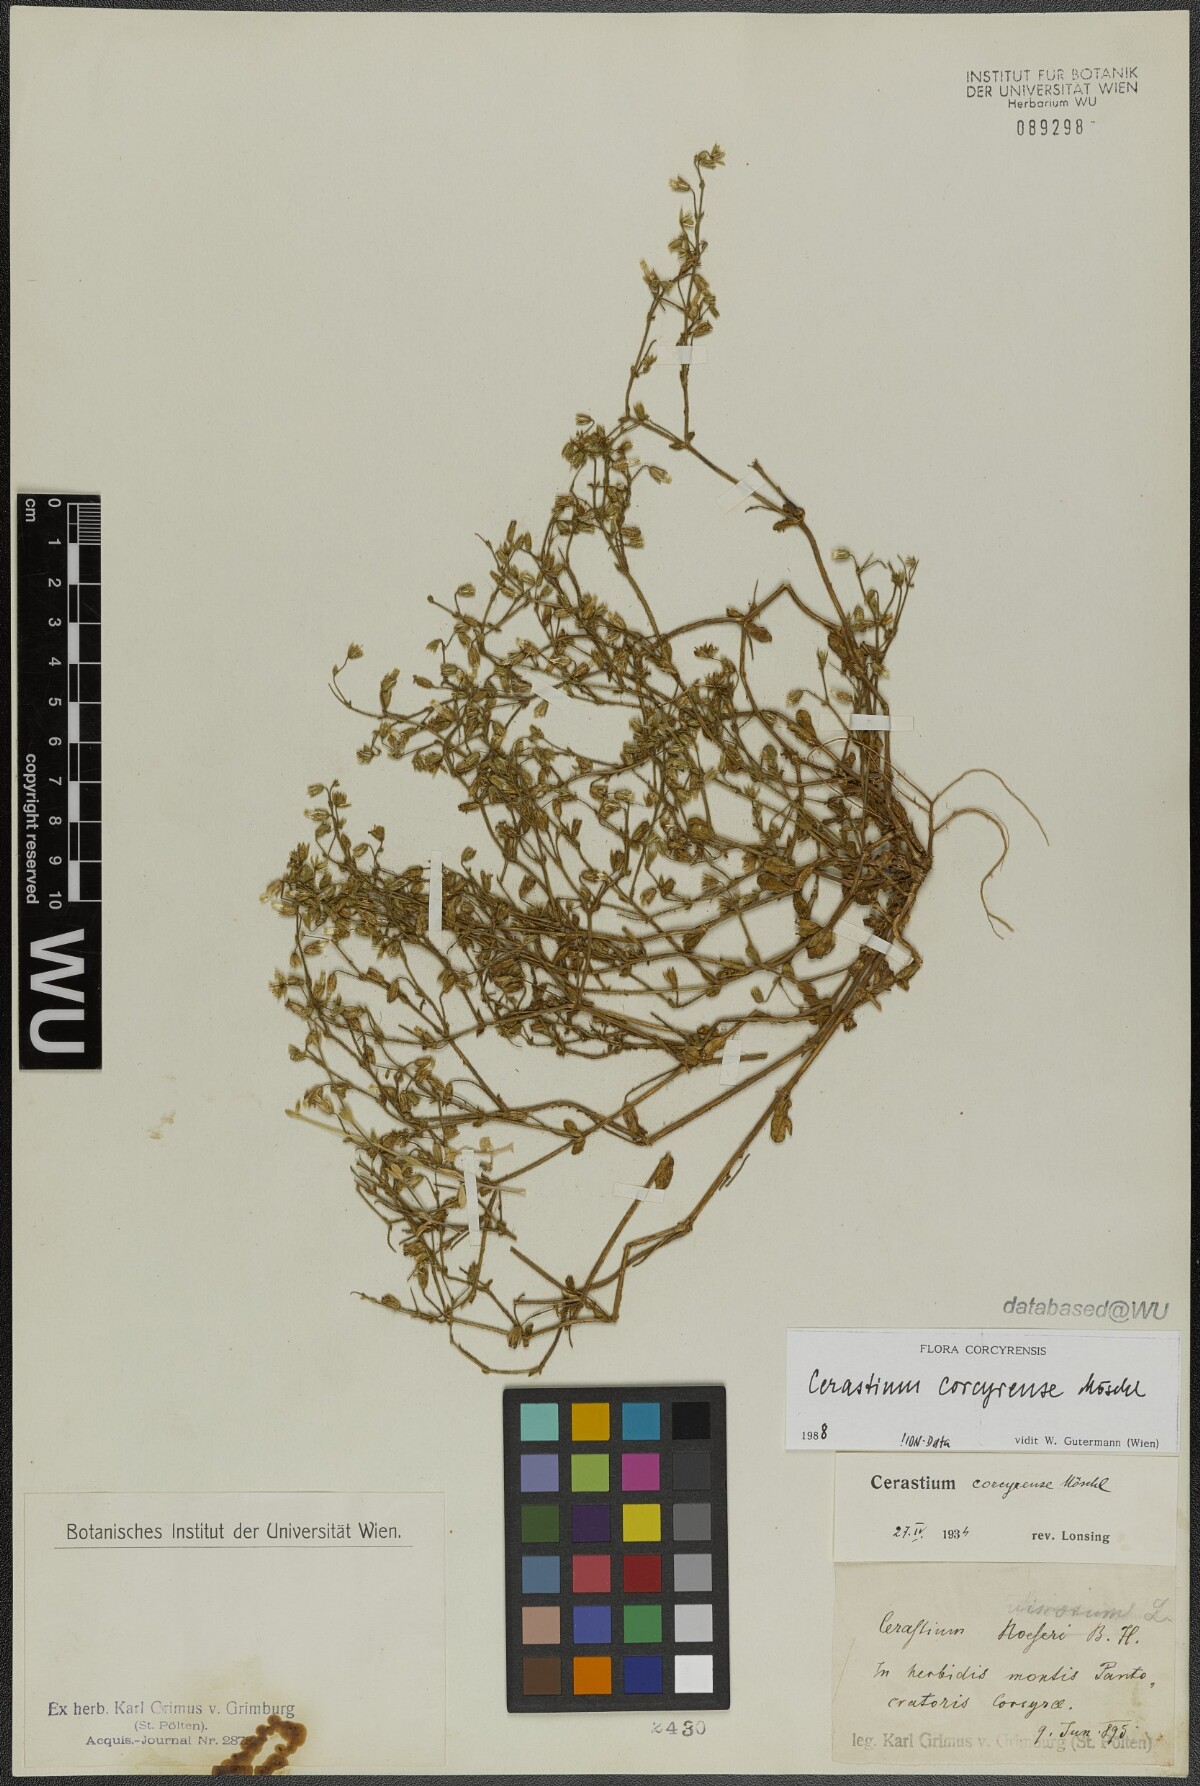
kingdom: Plantae
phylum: Tracheophyta
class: Magnoliopsida
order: Caryophyllales
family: Caryophyllaceae
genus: Cerastium
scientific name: Cerastium brachypetalum
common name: Grey mouse-ear
